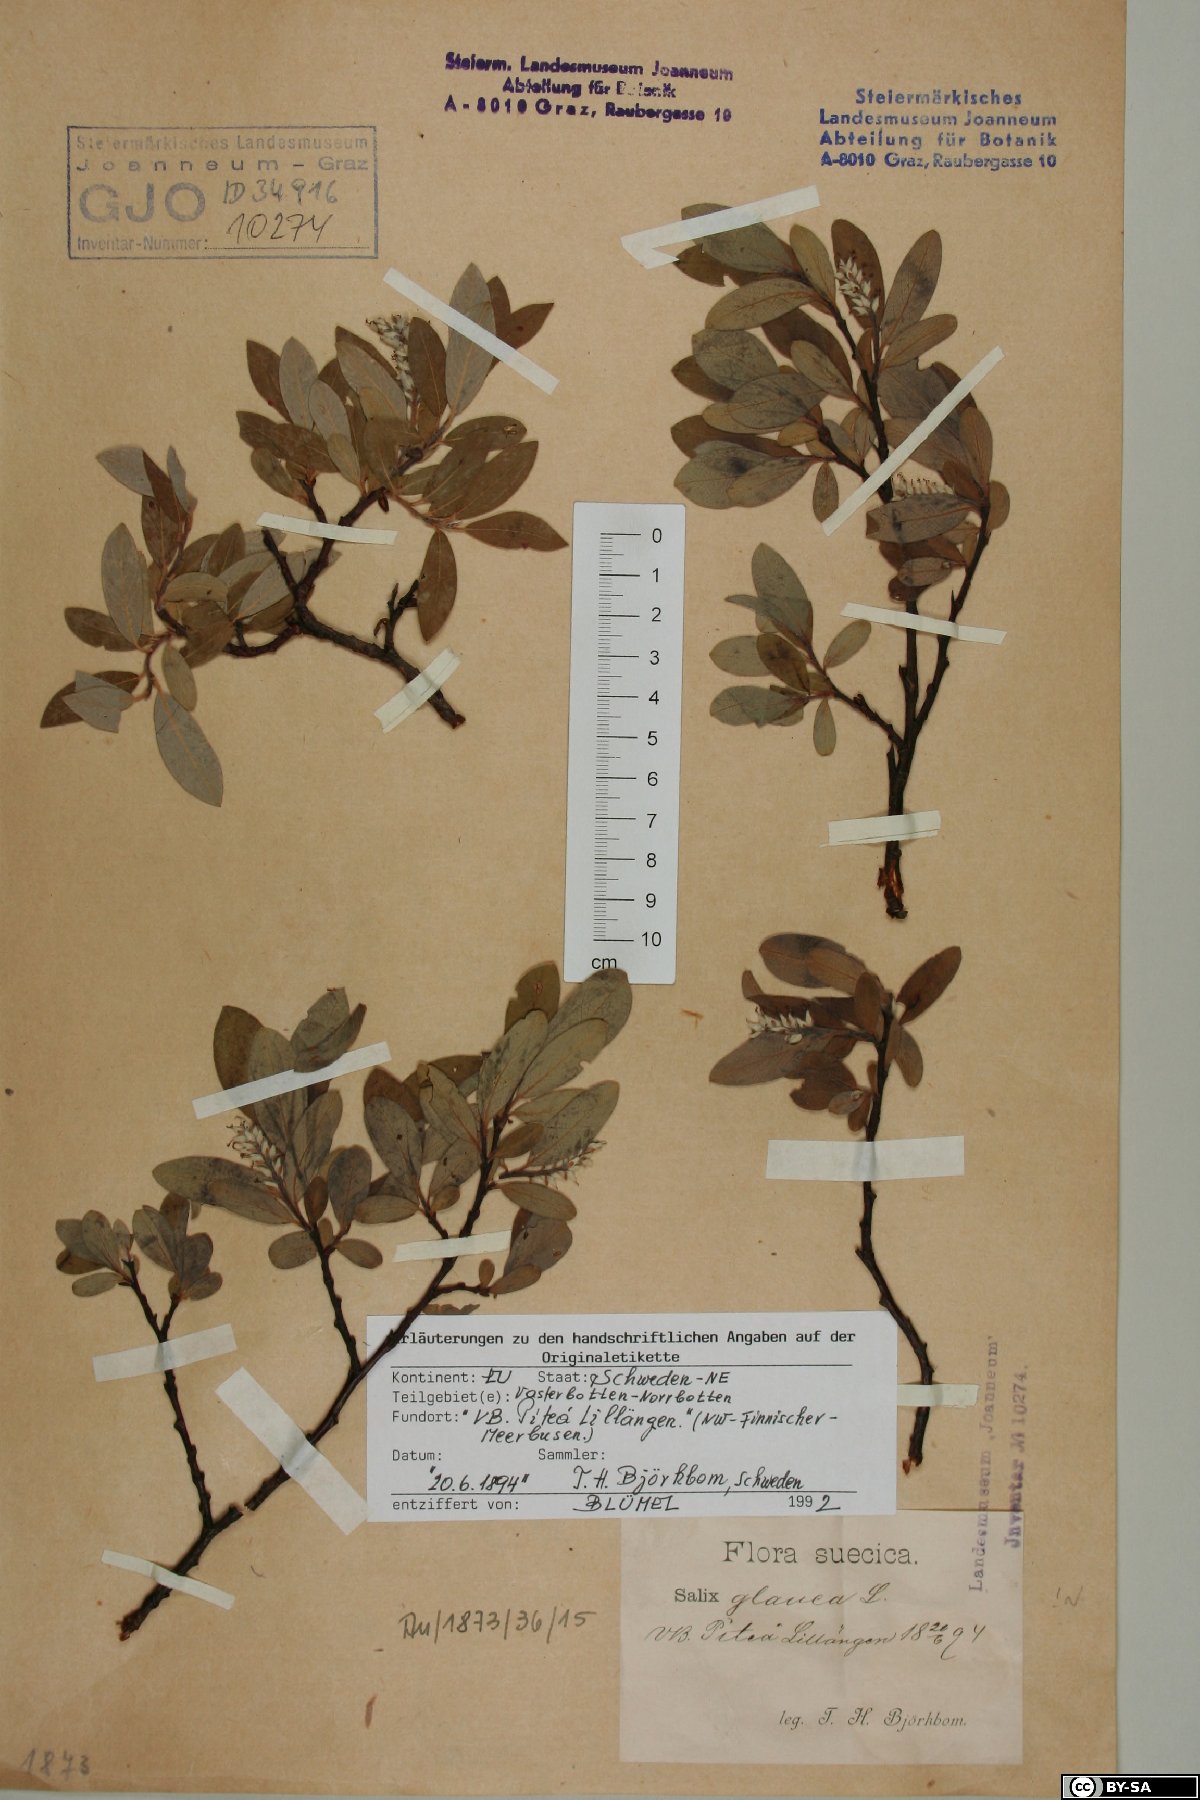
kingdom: Plantae
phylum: Tracheophyta
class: Magnoliopsida
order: Malpighiales
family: Salicaceae
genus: Salix
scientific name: Salix glauca
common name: Glaucous willow
